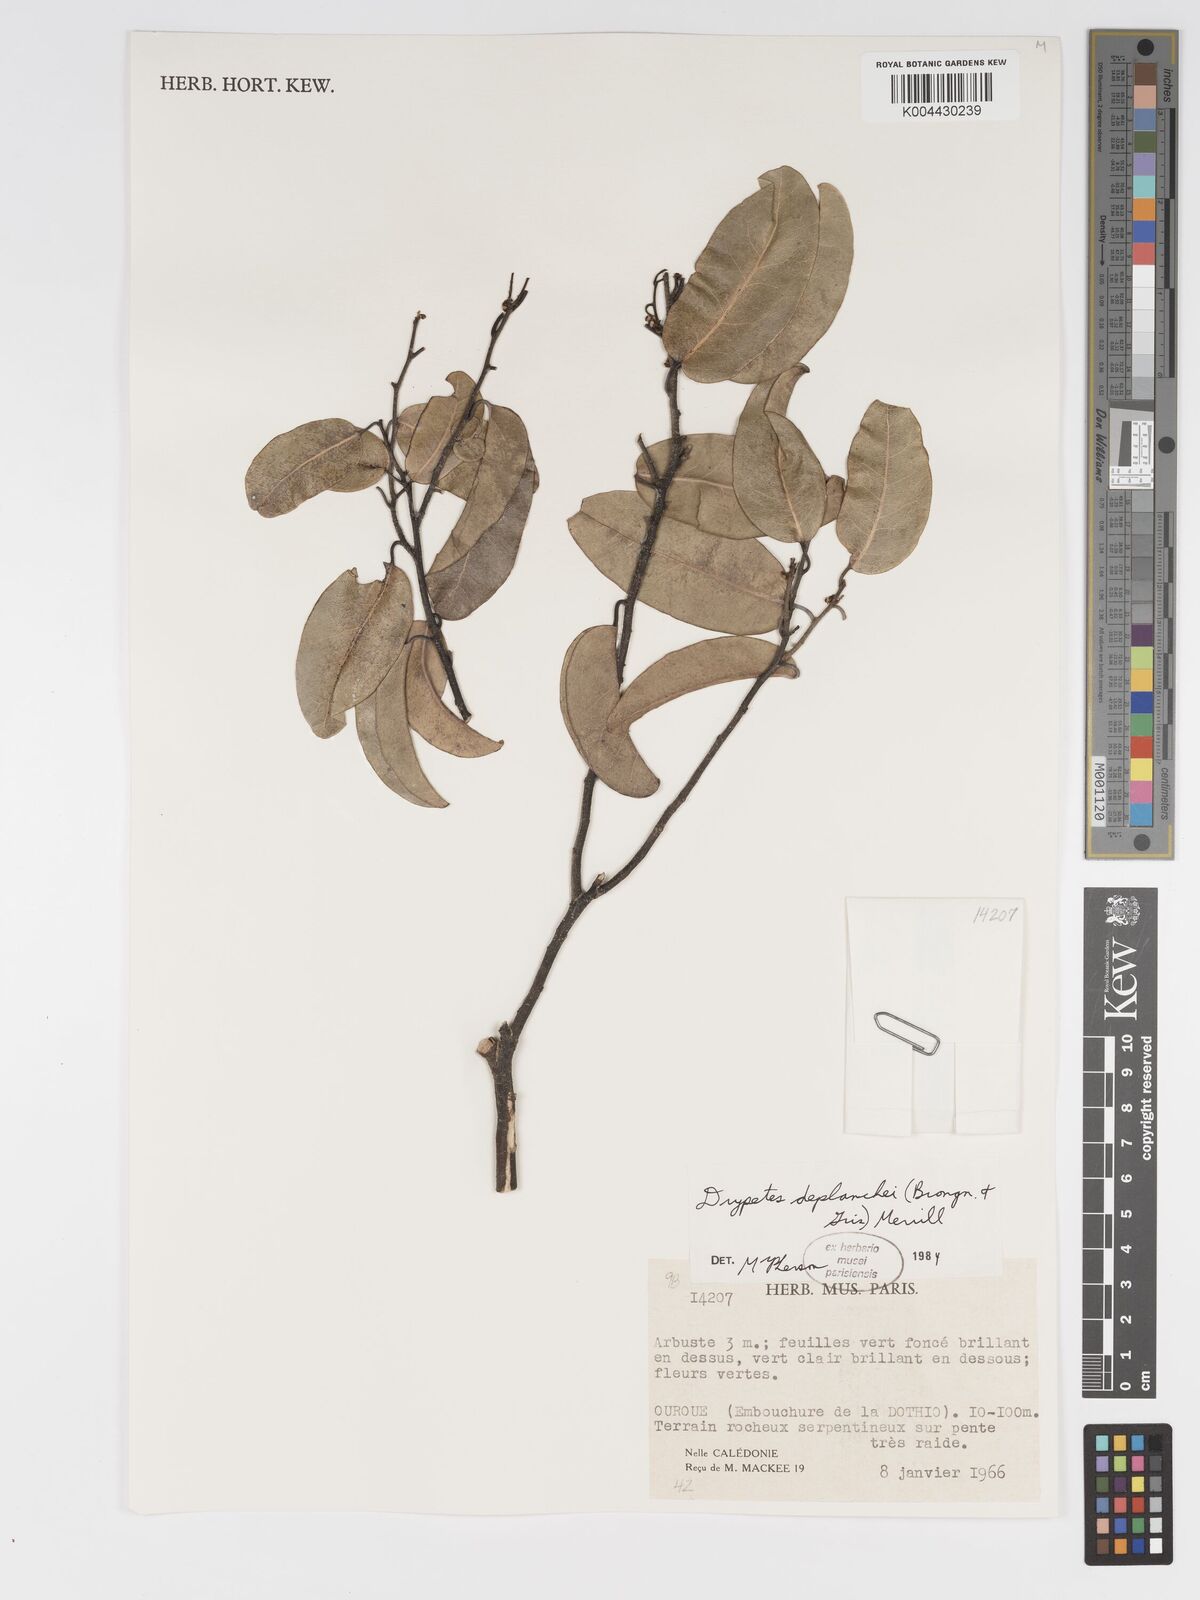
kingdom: Plantae
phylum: Tracheophyta
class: Magnoliopsida
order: Malpighiales
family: Putranjivaceae
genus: Drypetes
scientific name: Drypetes deplanchei
